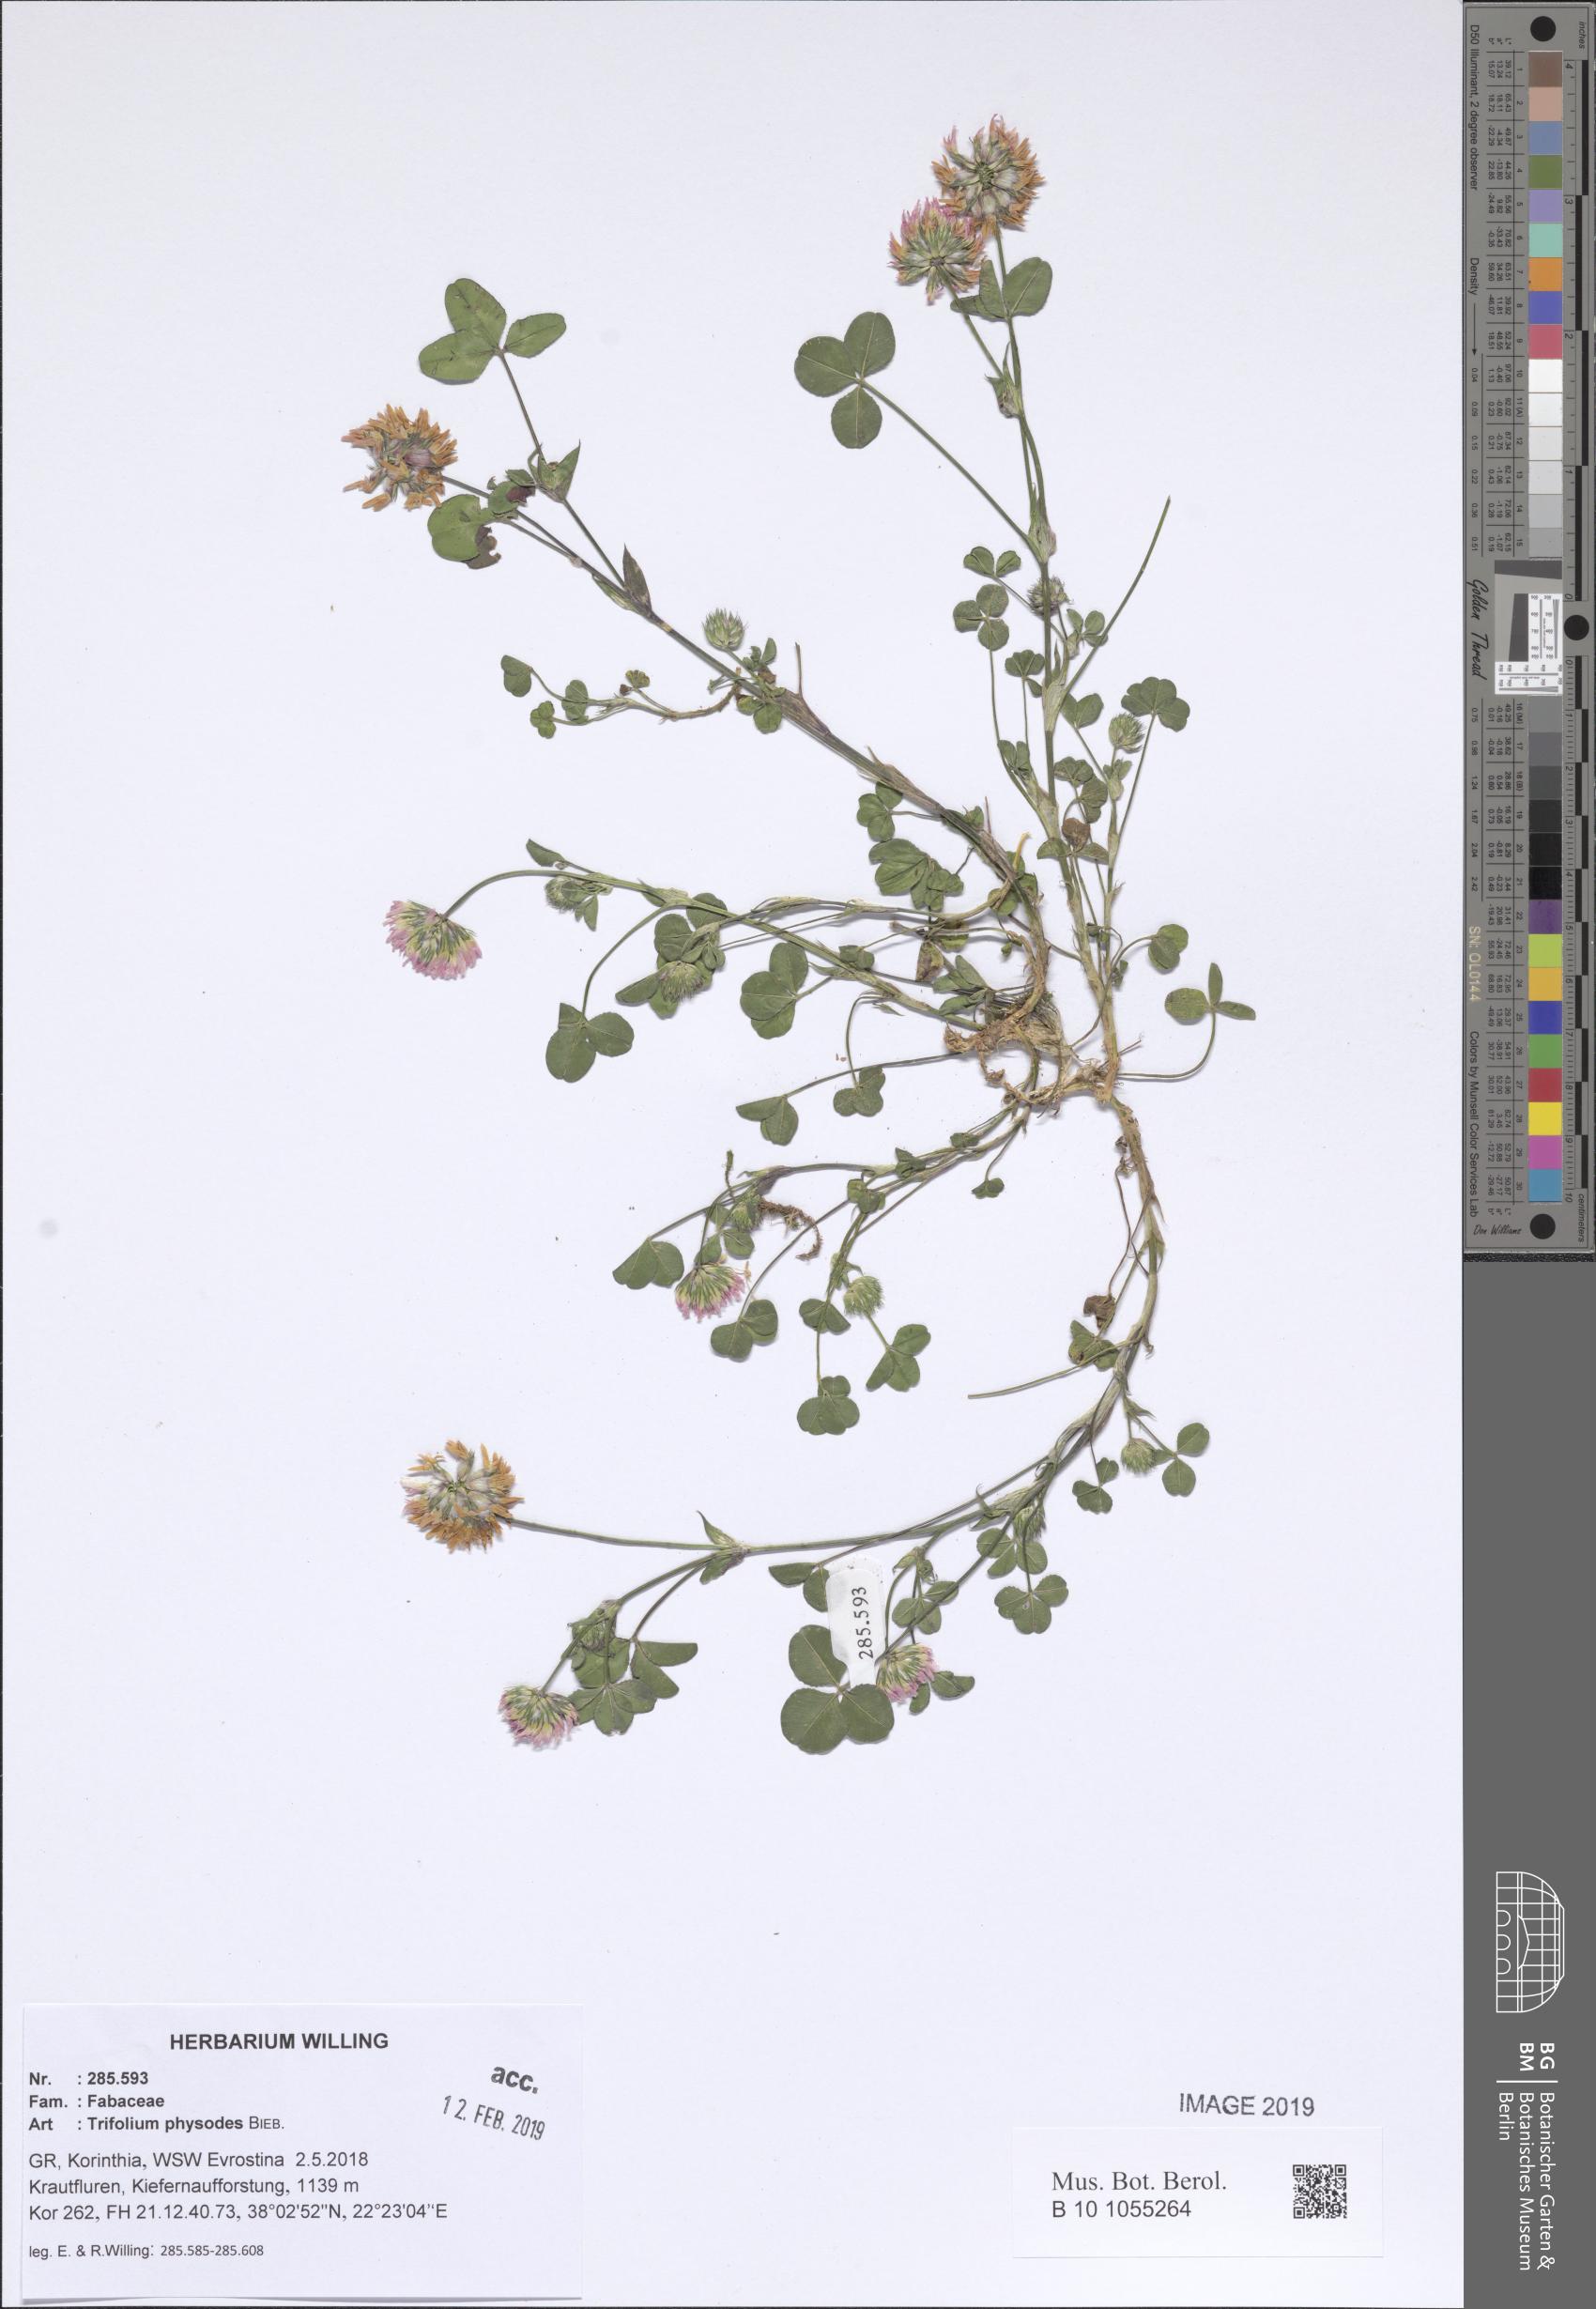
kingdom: Plantae
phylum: Tracheophyta
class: Magnoliopsida
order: Fabales
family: Fabaceae
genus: Trifolium
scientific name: Trifolium physodes
